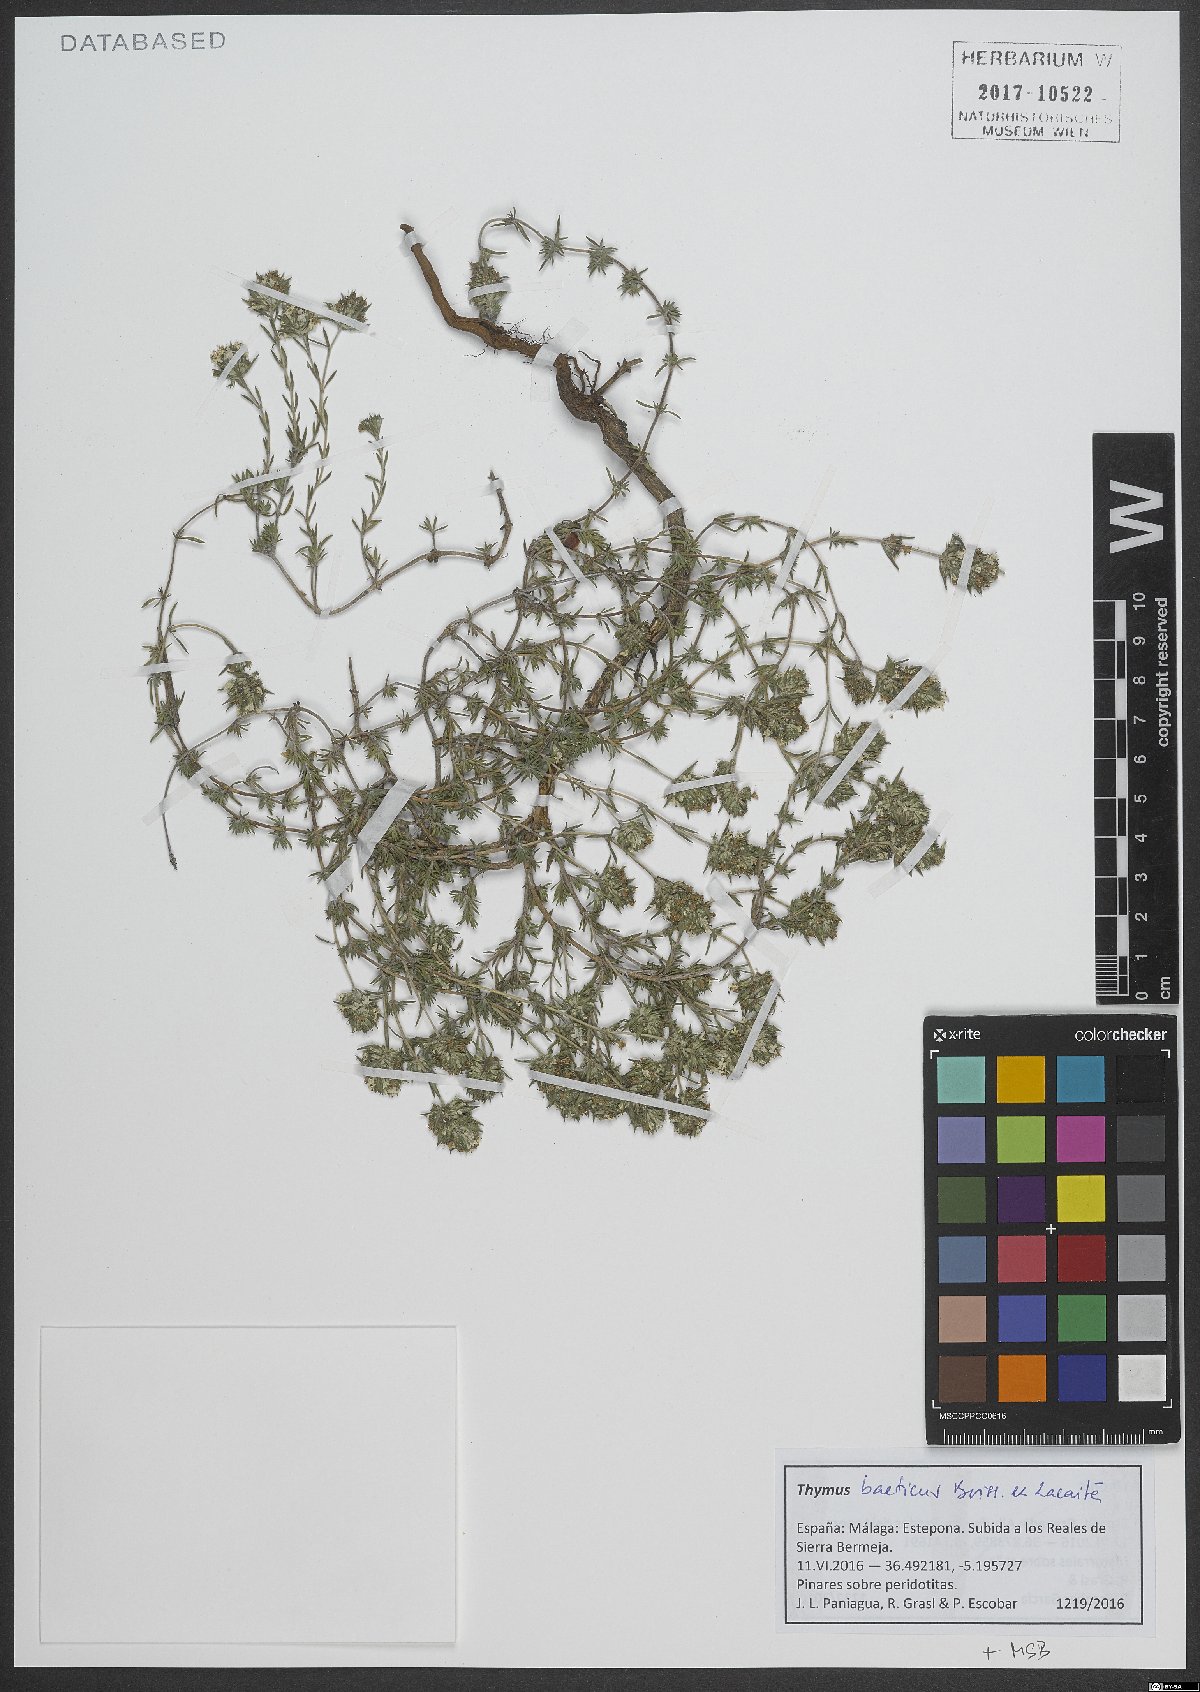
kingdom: Plantae
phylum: Tracheophyta
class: Magnoliopsida
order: Lamiales
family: Lamiaceae
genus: Thymus
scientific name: Thymus baeticus
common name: Spanish lemon thyme
